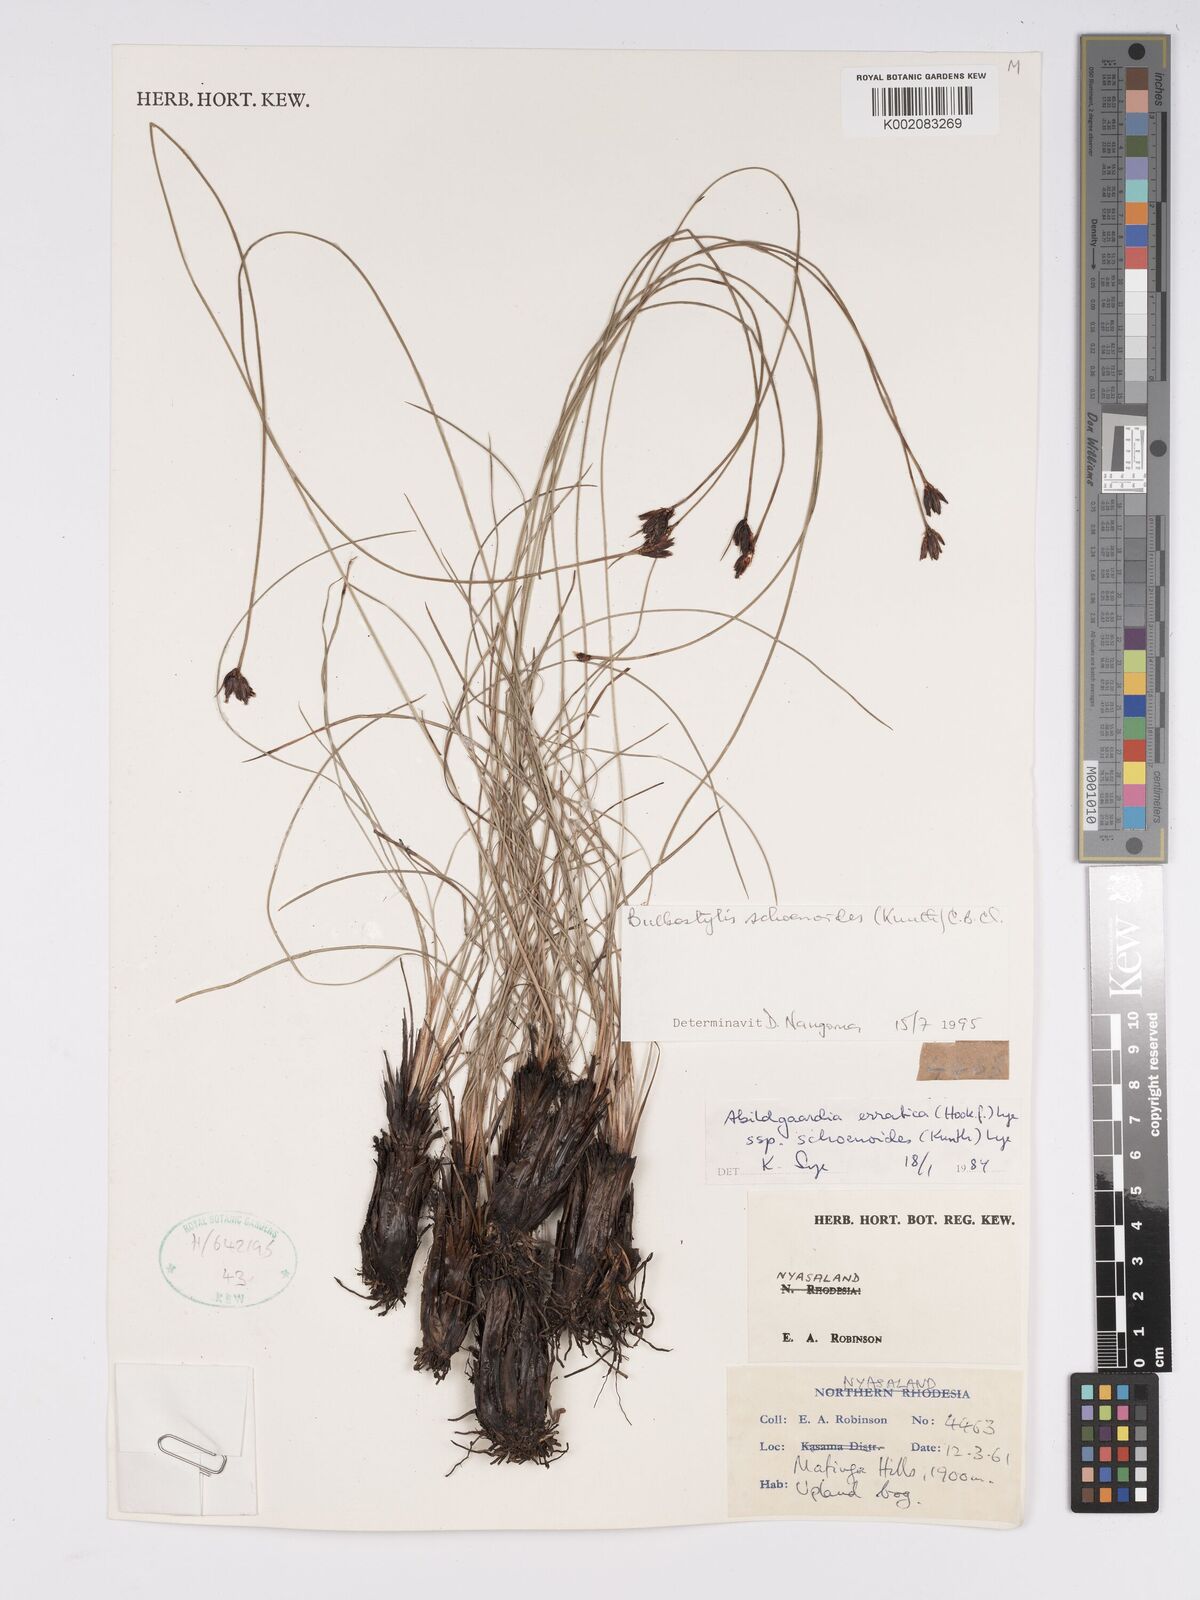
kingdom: Plantae
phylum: Tracheophyta
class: Liliopsida
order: Poales
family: Cyperaceae
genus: Bulbostylis
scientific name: Bulbostylis schoenoides
